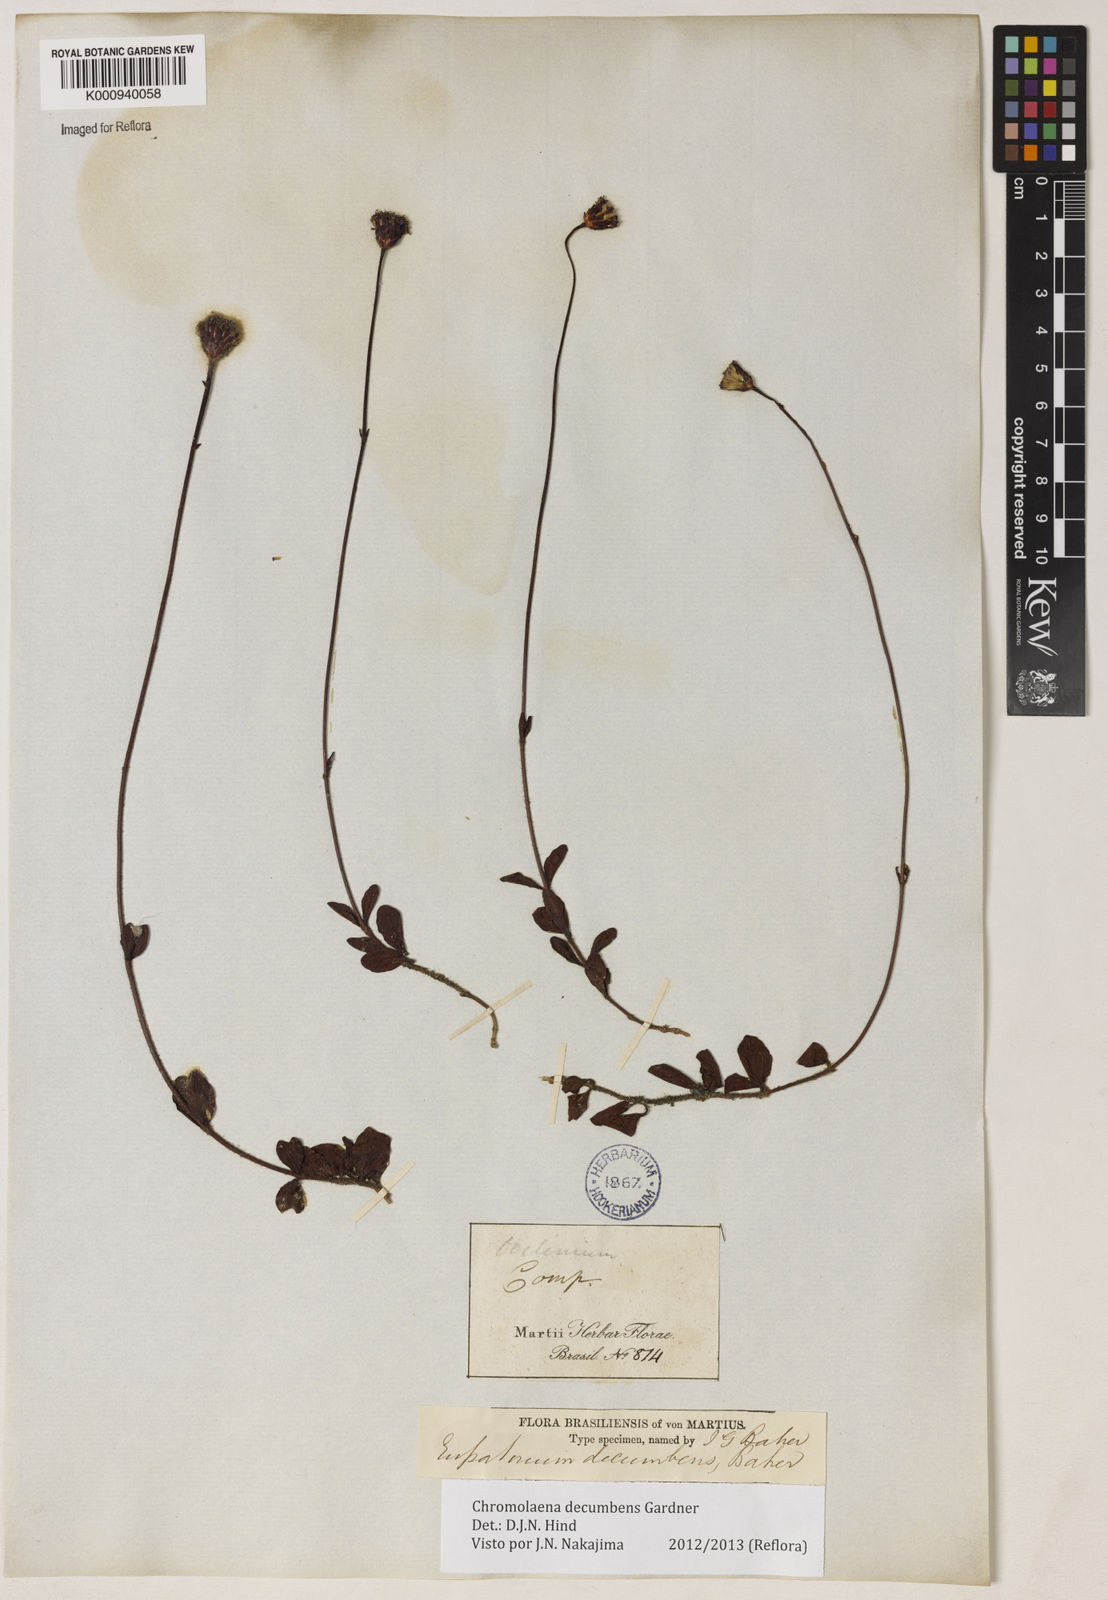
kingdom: Plantae
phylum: Tracheophyta
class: Magnoliopsida
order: Asterales
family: Asteraceae
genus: Praxelis
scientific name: Praxelis decumbens
